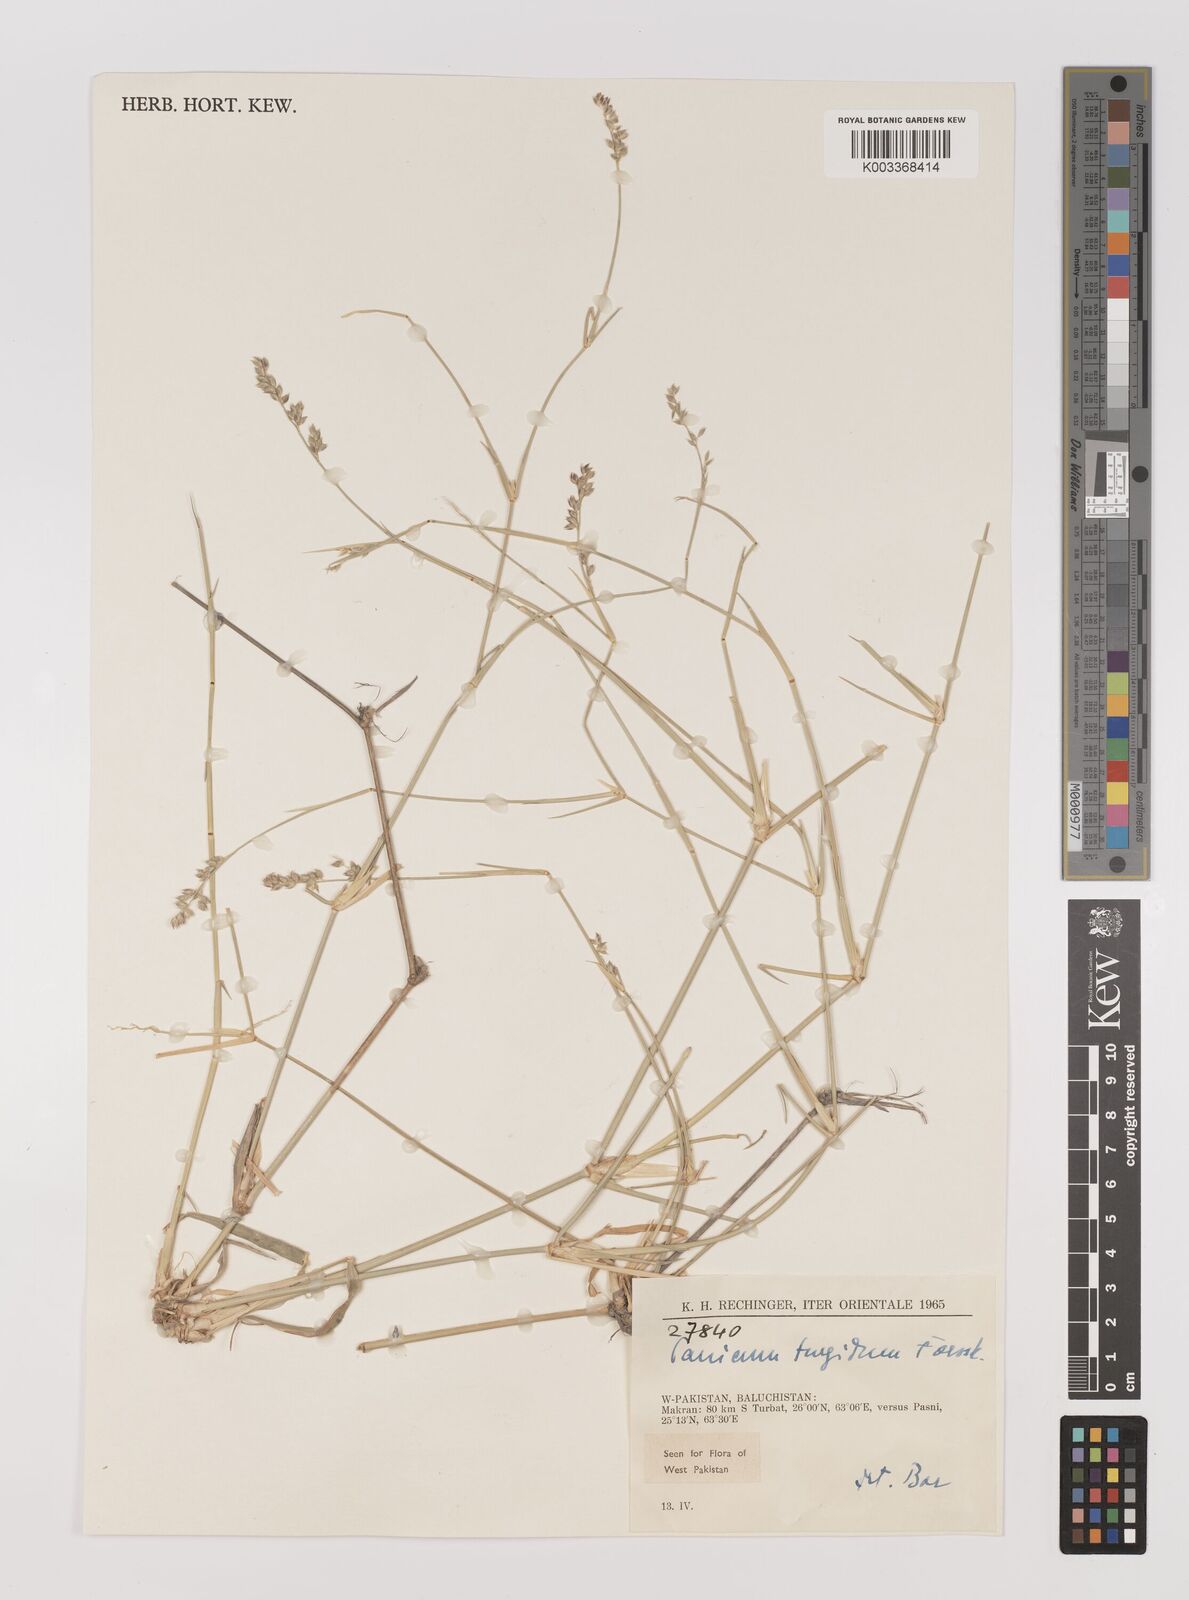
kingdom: Plantae
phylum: Tracheophyta
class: Liliopsida
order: Poales
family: Poaceae
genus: Panicum
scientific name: Panicum turgidum
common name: Desert grass
